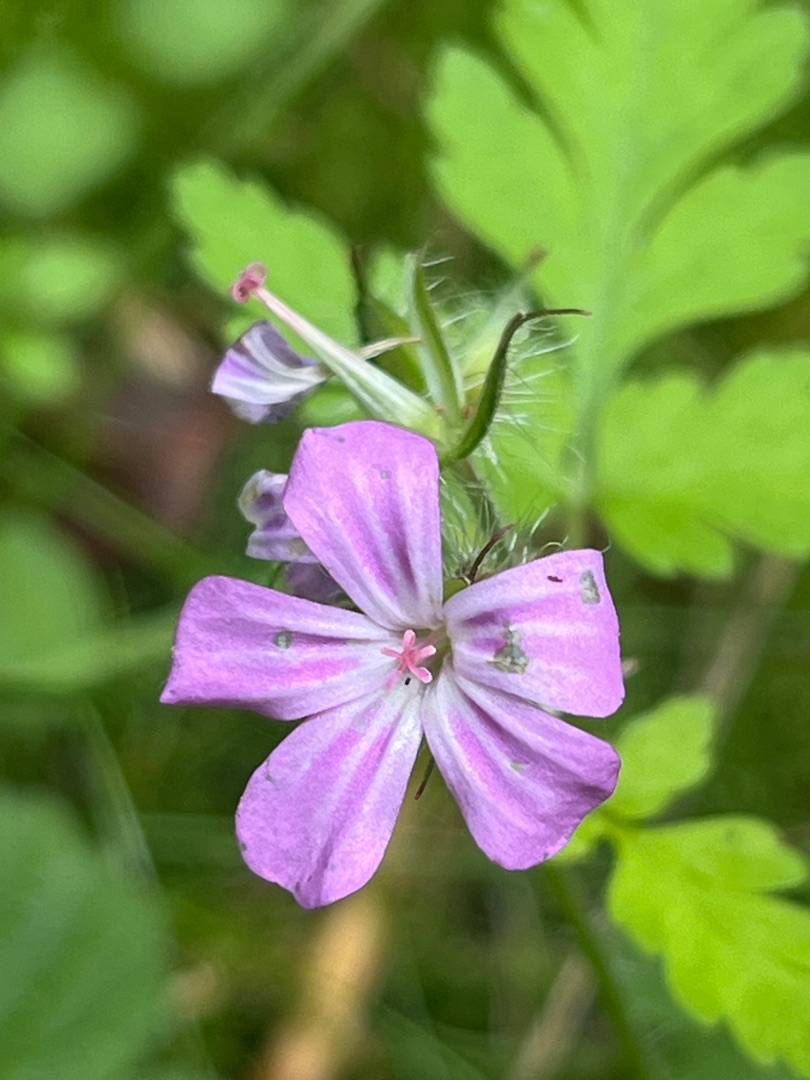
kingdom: Plantae
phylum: Tracheophyta
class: Magnoliopsida
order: Geraniales
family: Geraniaceae
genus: Geranium
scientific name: Geranium robertianum
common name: Stinkende storkenæb
